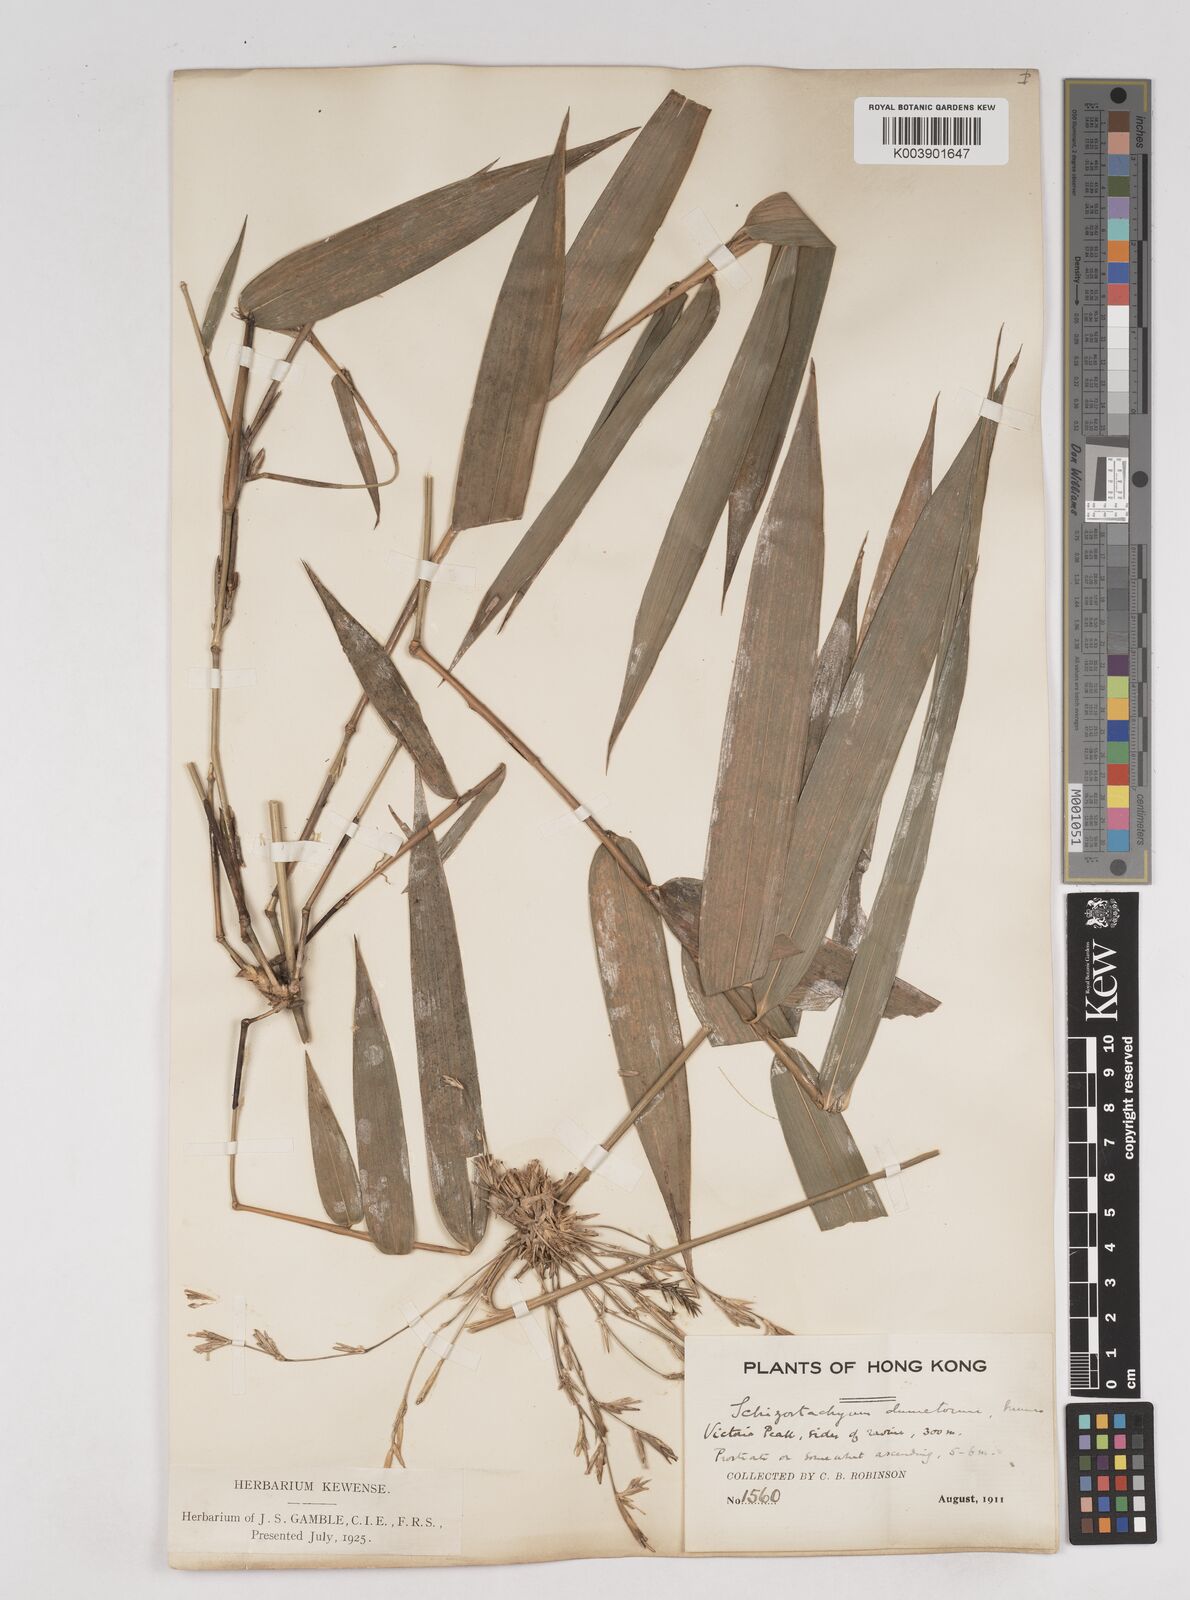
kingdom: Plantae
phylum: Tracheophyta
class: Liliopsida
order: Poales
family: Poaceae
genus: Schizostachyum
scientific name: Schizostachyum dumetorum
